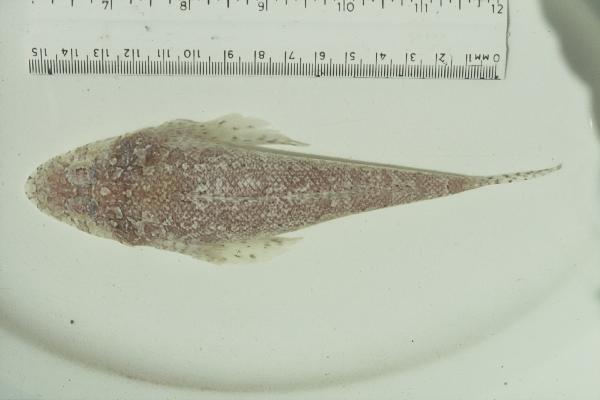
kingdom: Animalia
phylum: Chordata
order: Scorpaeniformes
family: Platycephalidae
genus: Thysanophrys
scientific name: Thysanophrys
